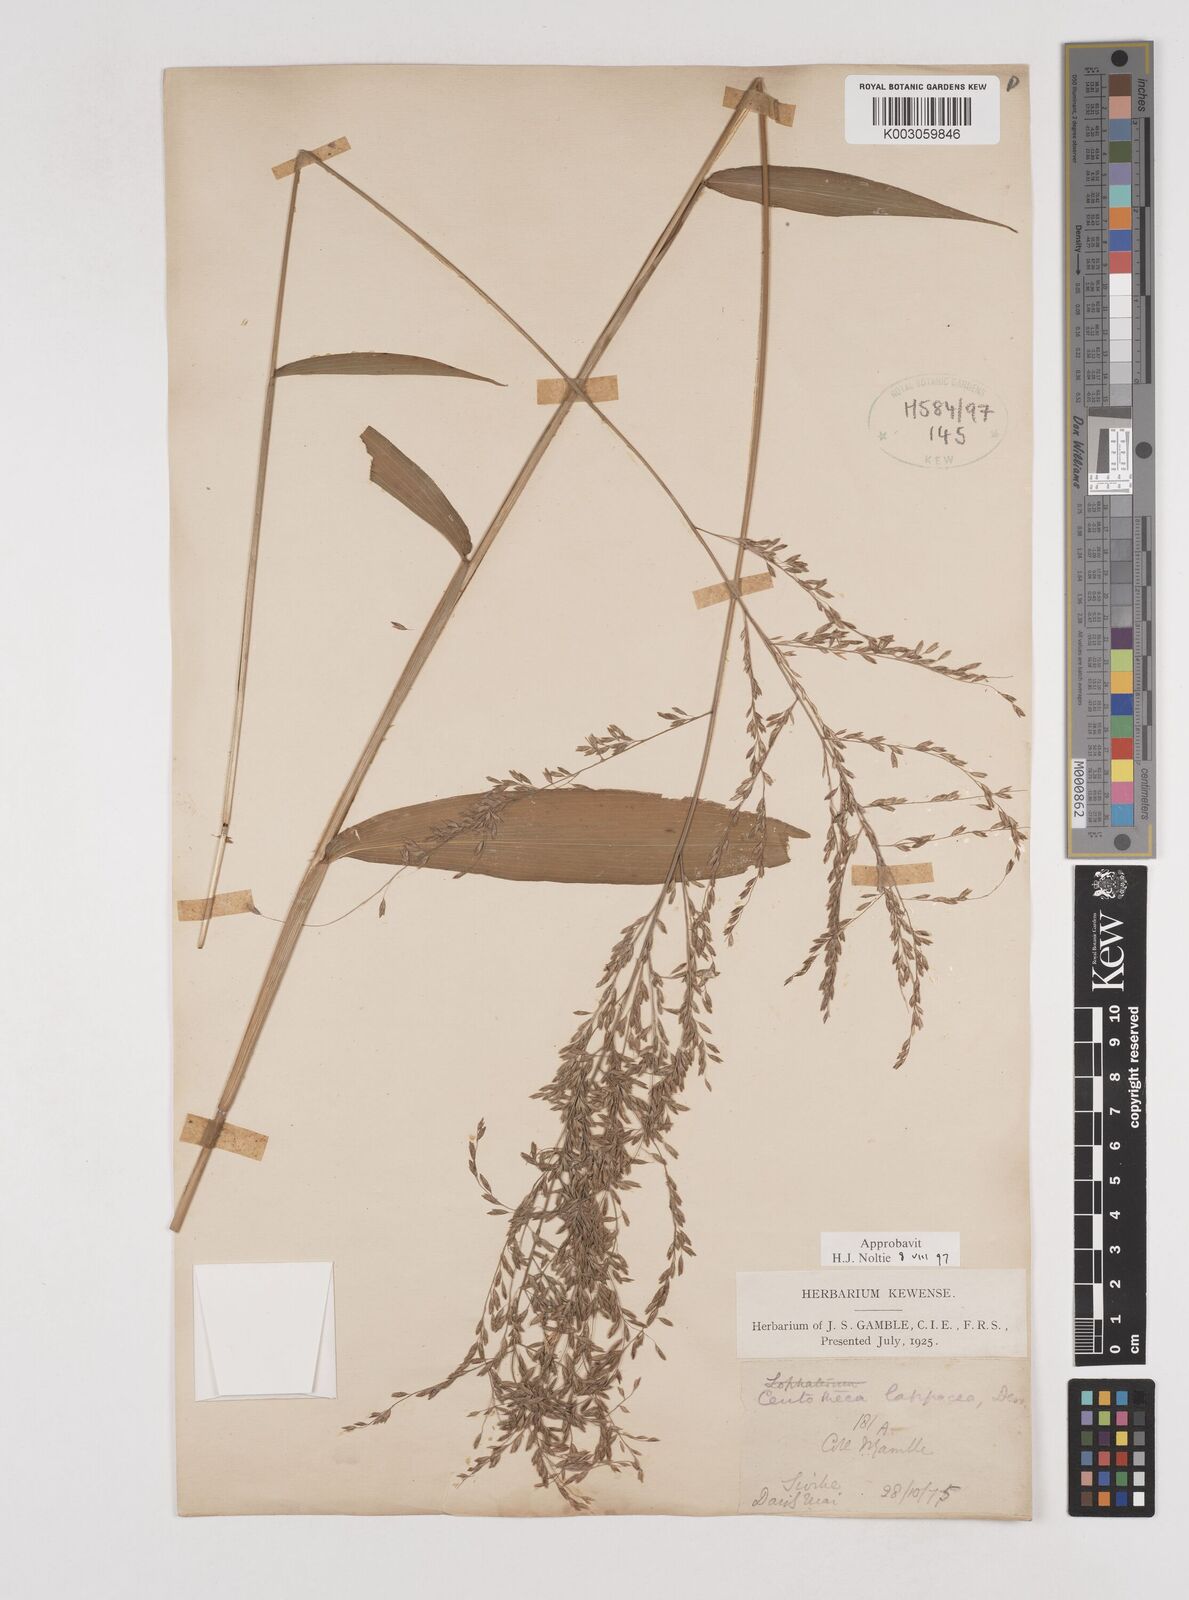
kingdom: Plantae
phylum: Tracheophyta
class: Liliopsida
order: Poales
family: Poaceae
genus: Centotheca
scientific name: Centotheca lappacea
